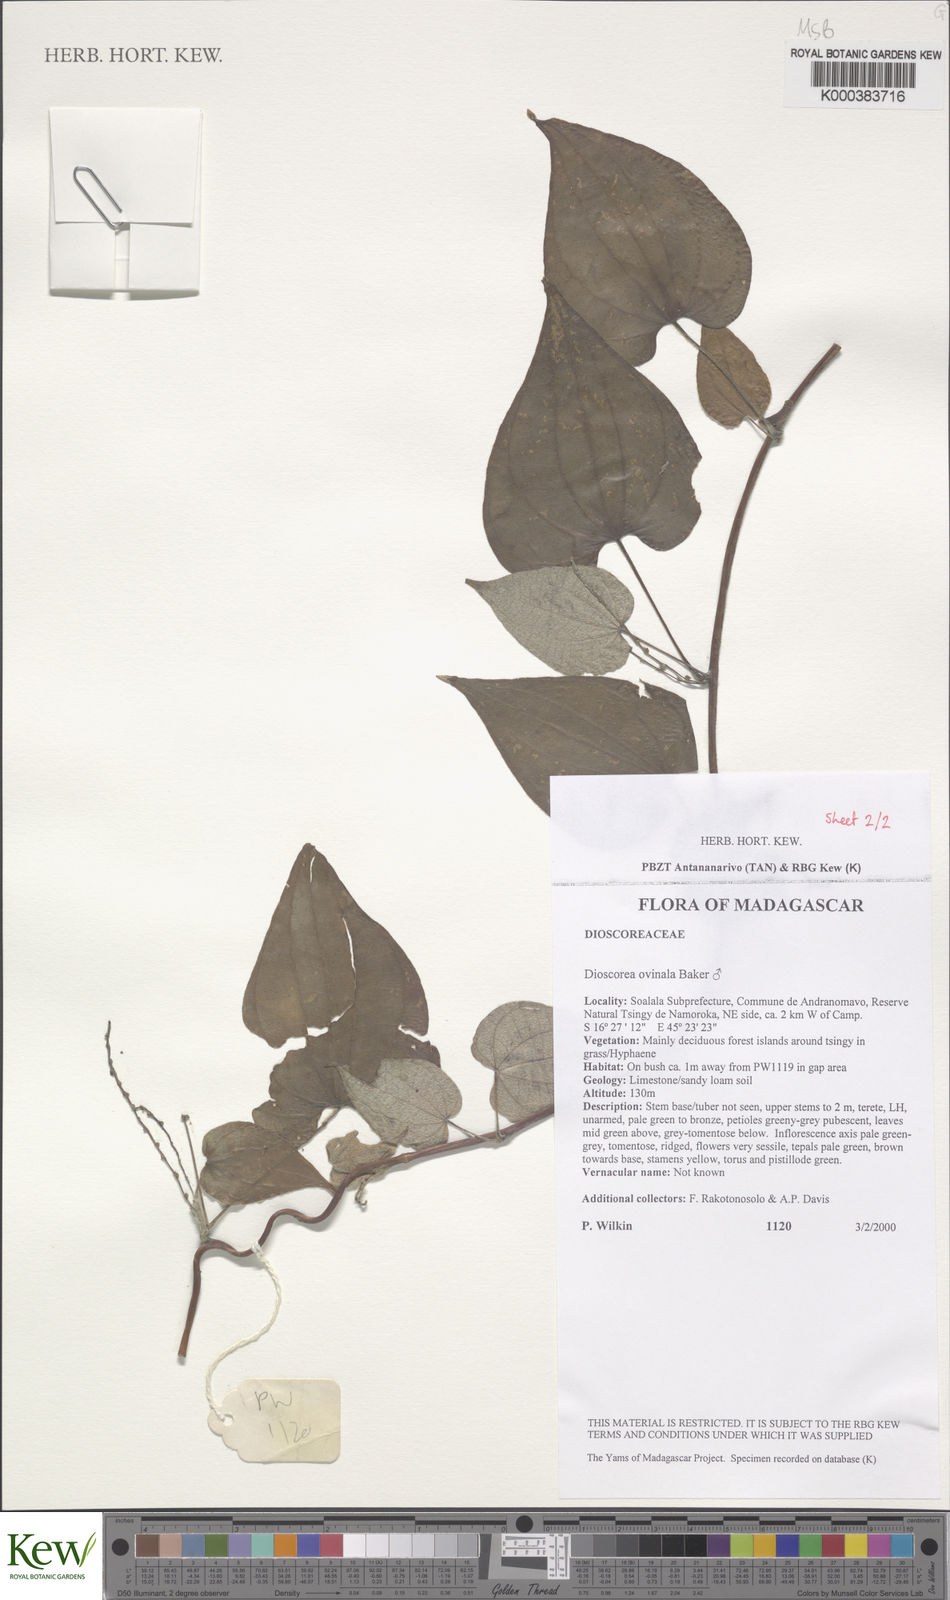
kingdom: Plantae
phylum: Tracheophyta
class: Liliopsida
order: Dioscoreales
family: Dioscoreaceae
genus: Dioscorea
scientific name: Dioscorea ovinala
